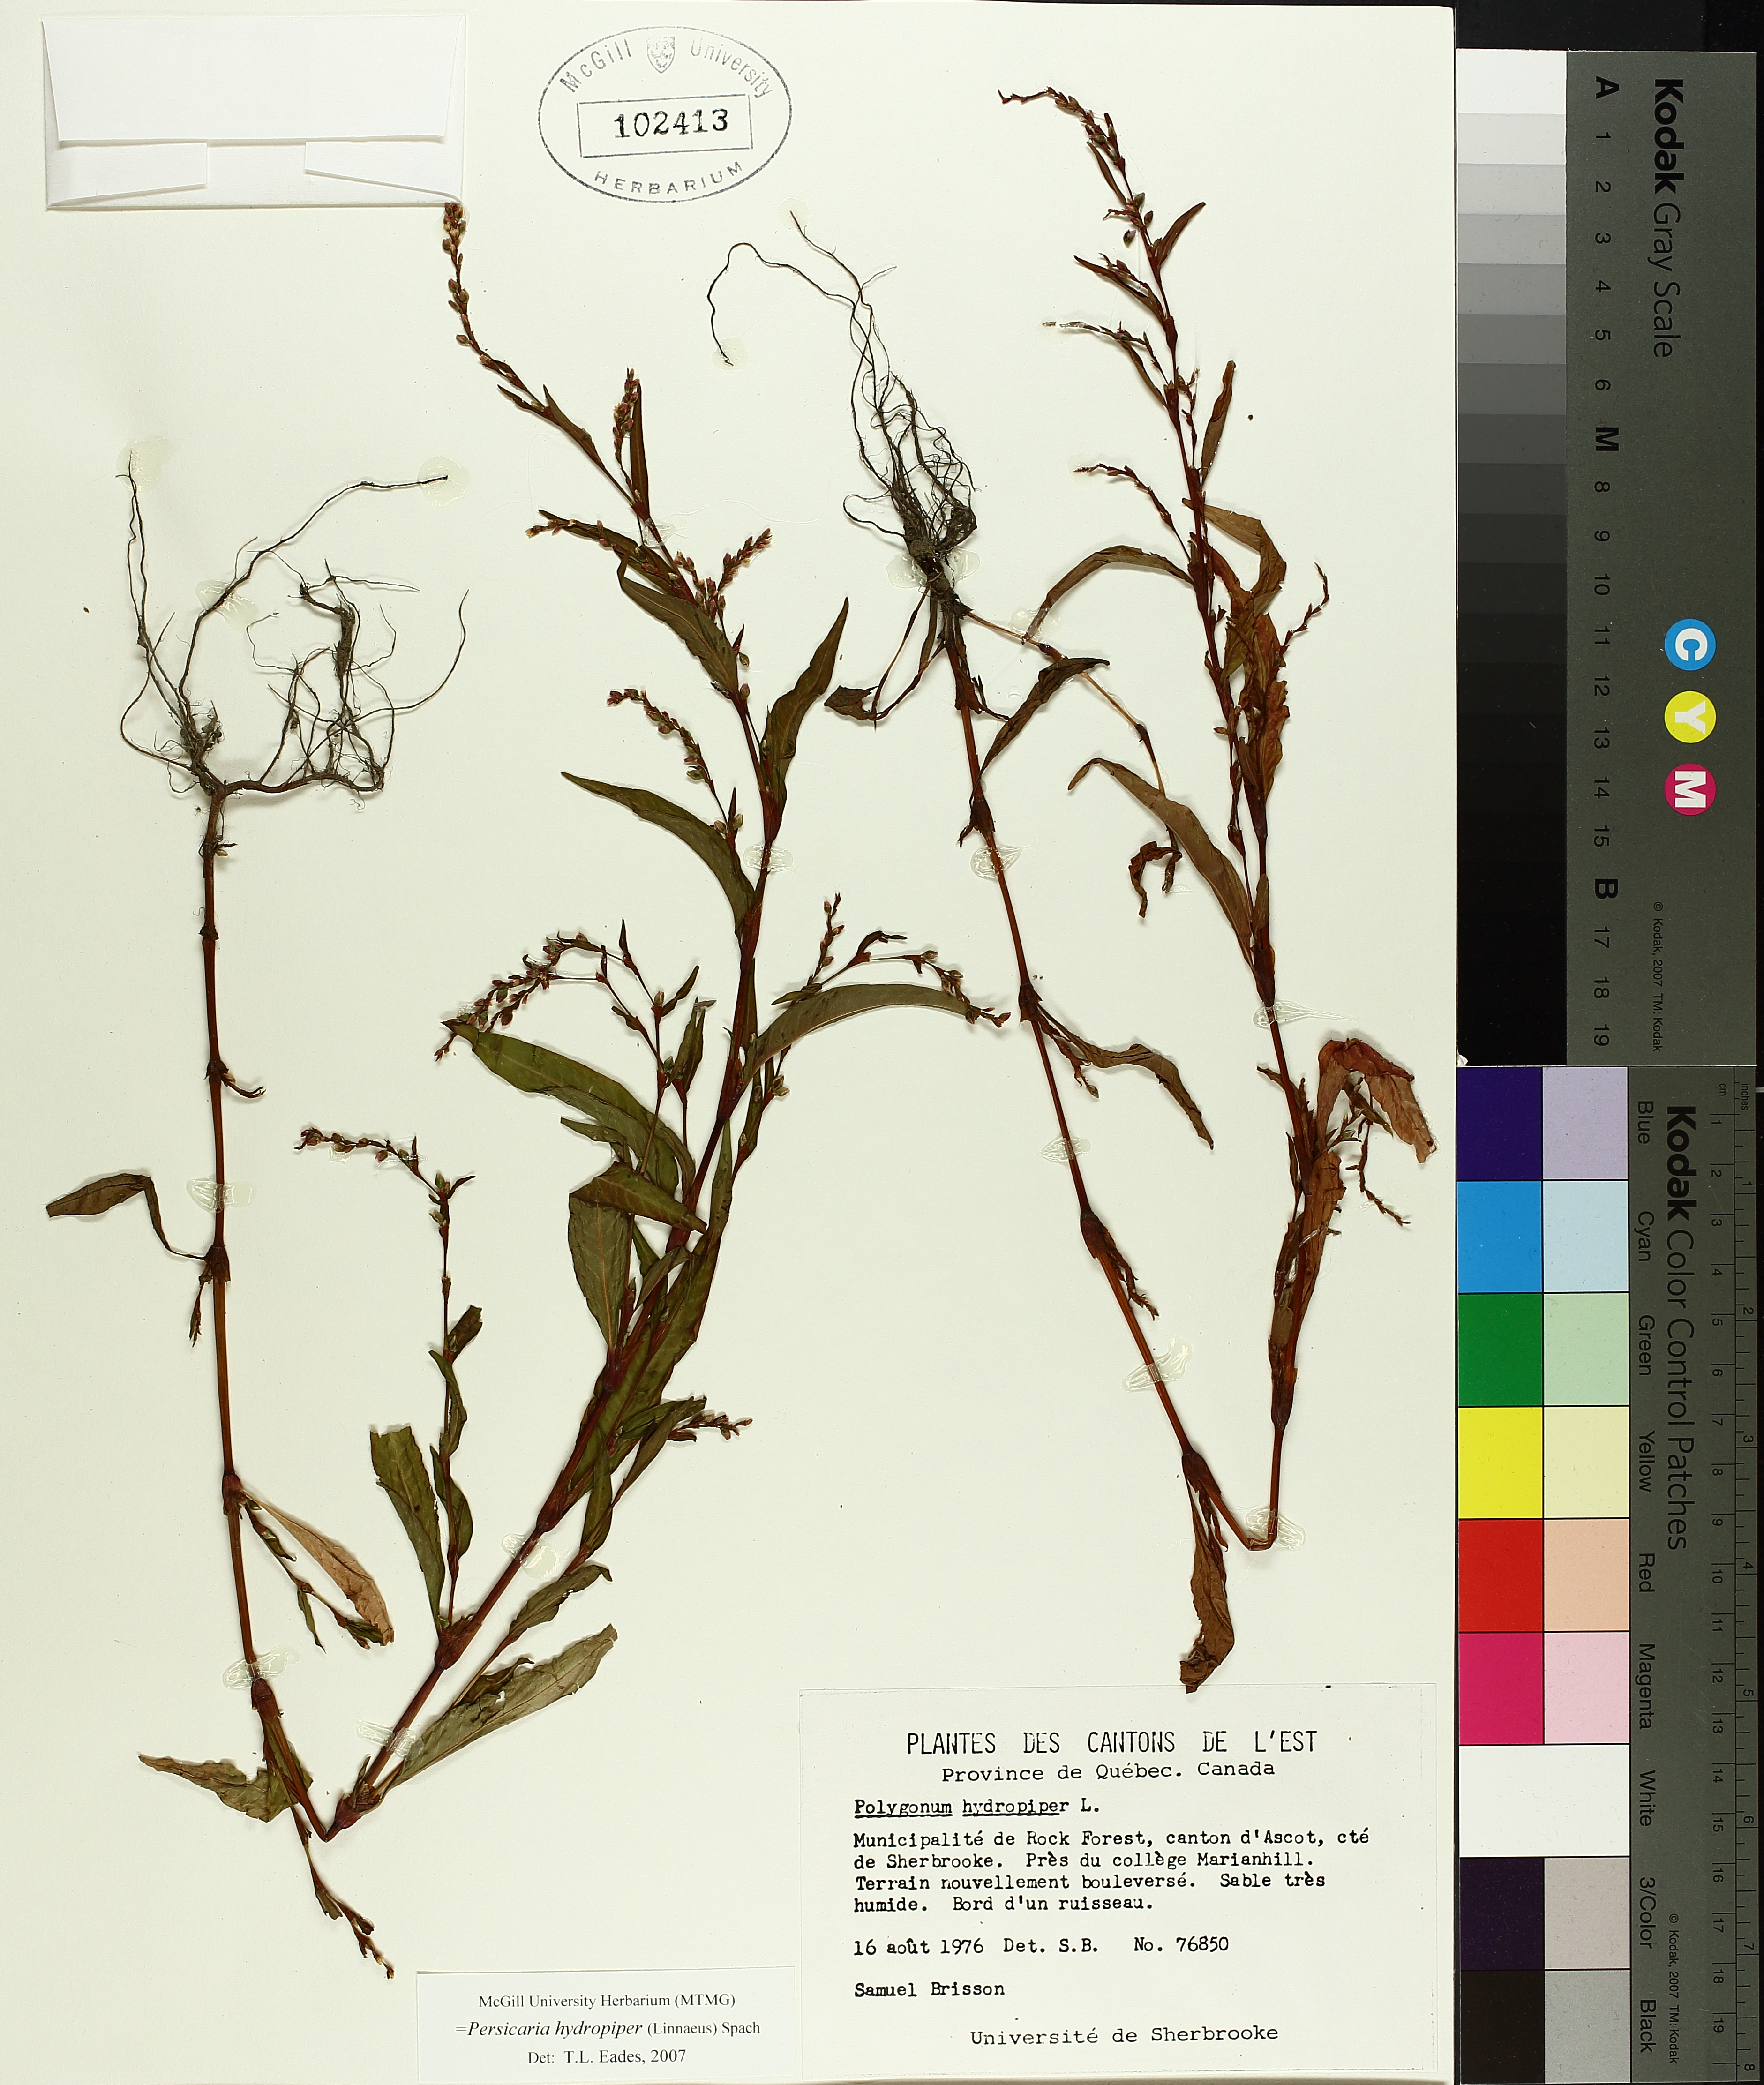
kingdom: Plantae
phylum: Tracheophyta
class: Magnoliopsida
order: Caryophyllales
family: Polygonaceae
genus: Persicaria
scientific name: Persicaria hydropiper
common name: Water-pepper
